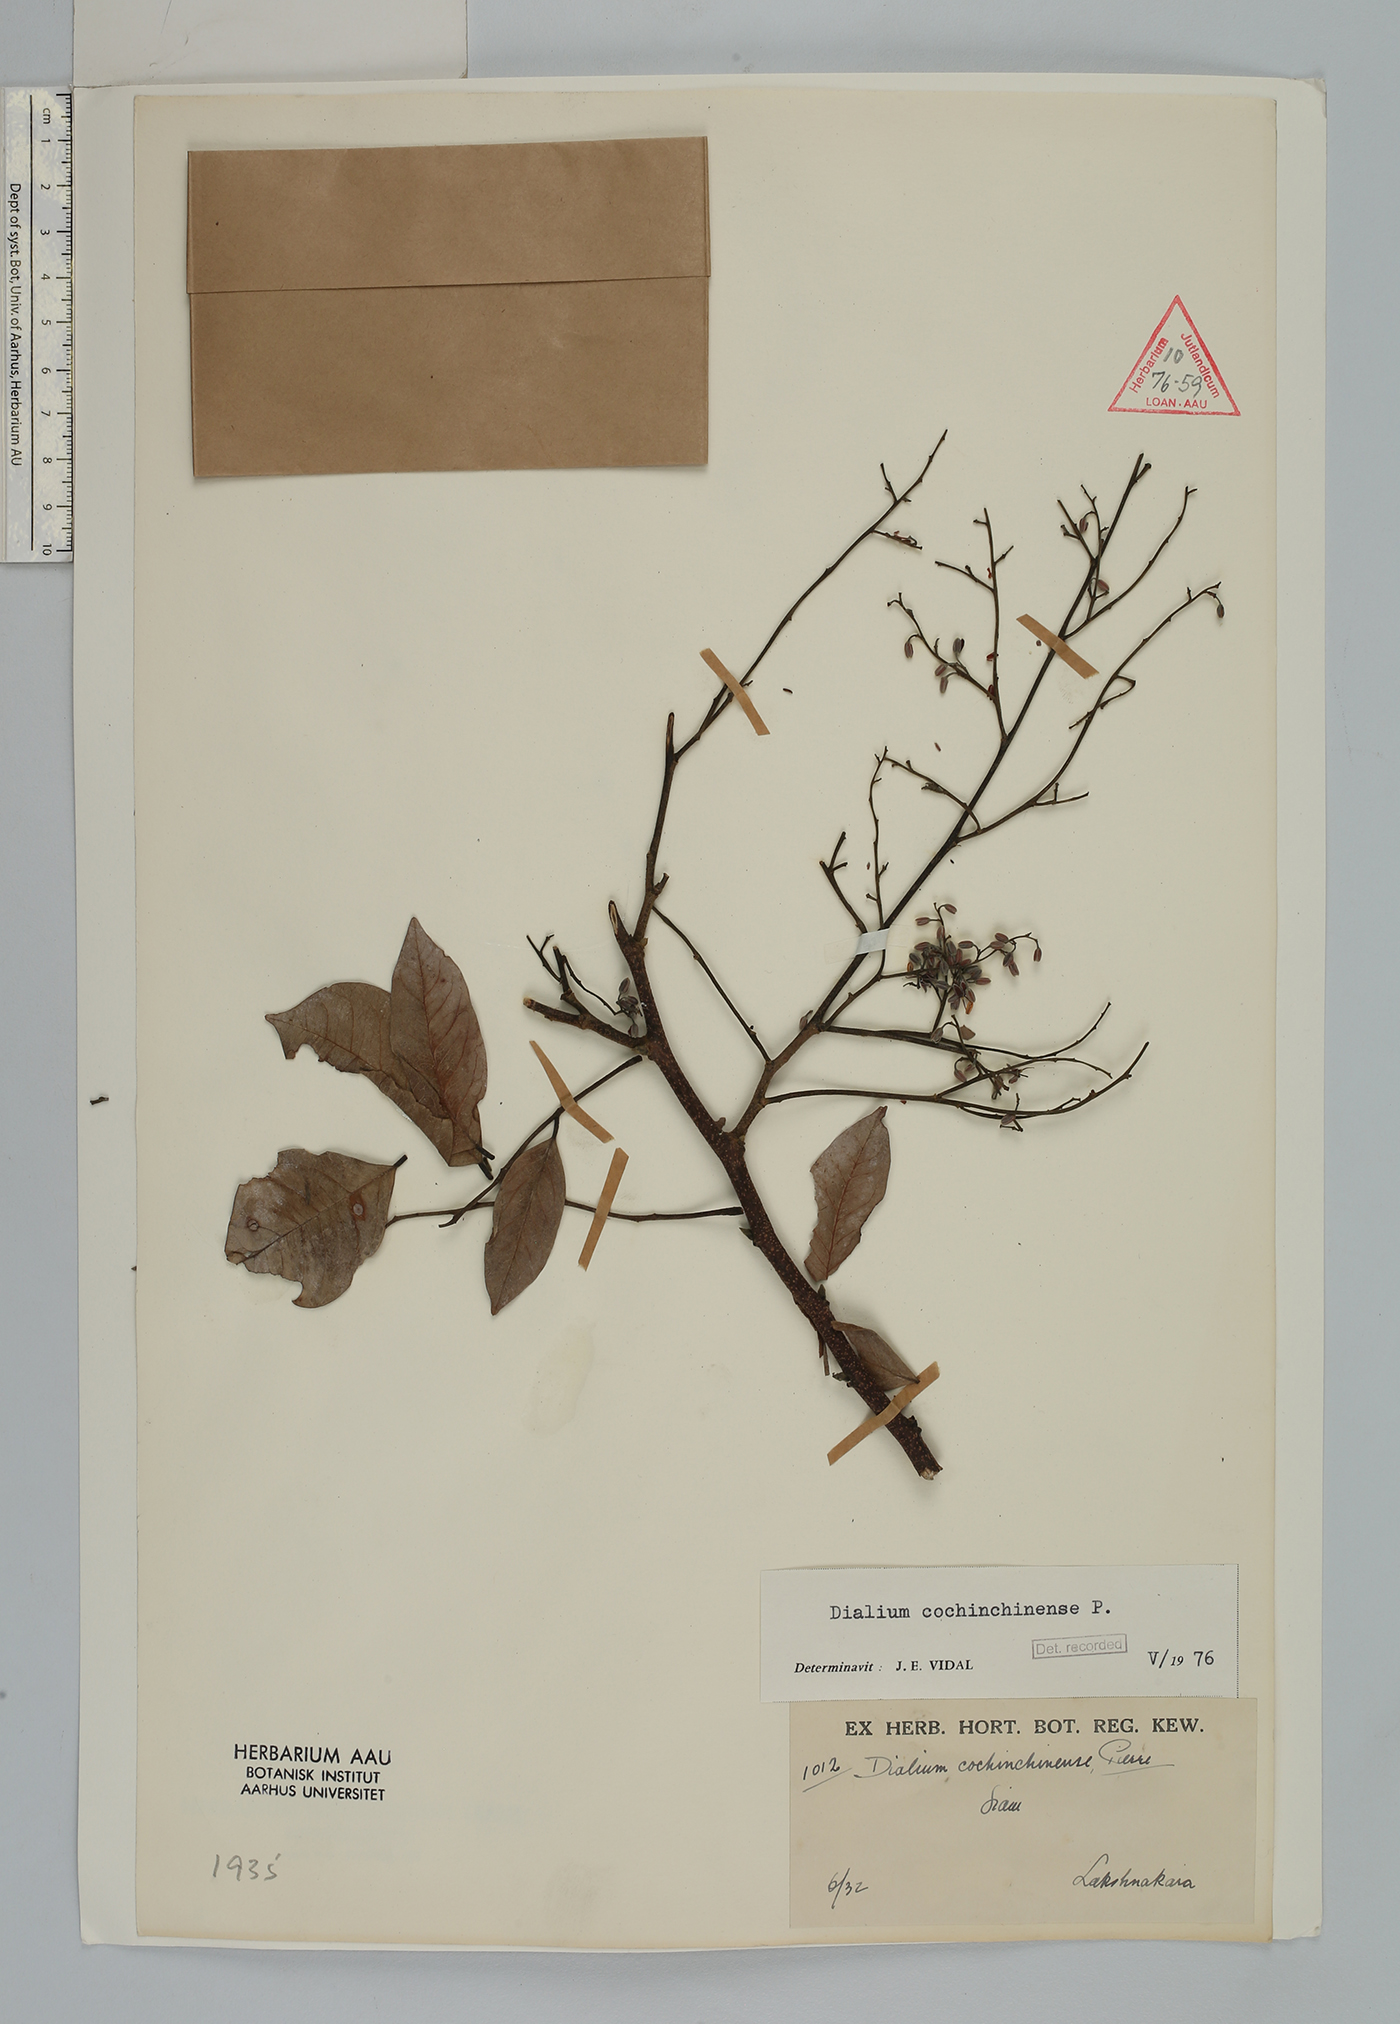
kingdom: Plantae
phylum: Tracheophyta
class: Magnoliopsida
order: Fabales
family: Fabaceae
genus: Dialium
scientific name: Dialium cochinchinense
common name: Velvet tamarind
